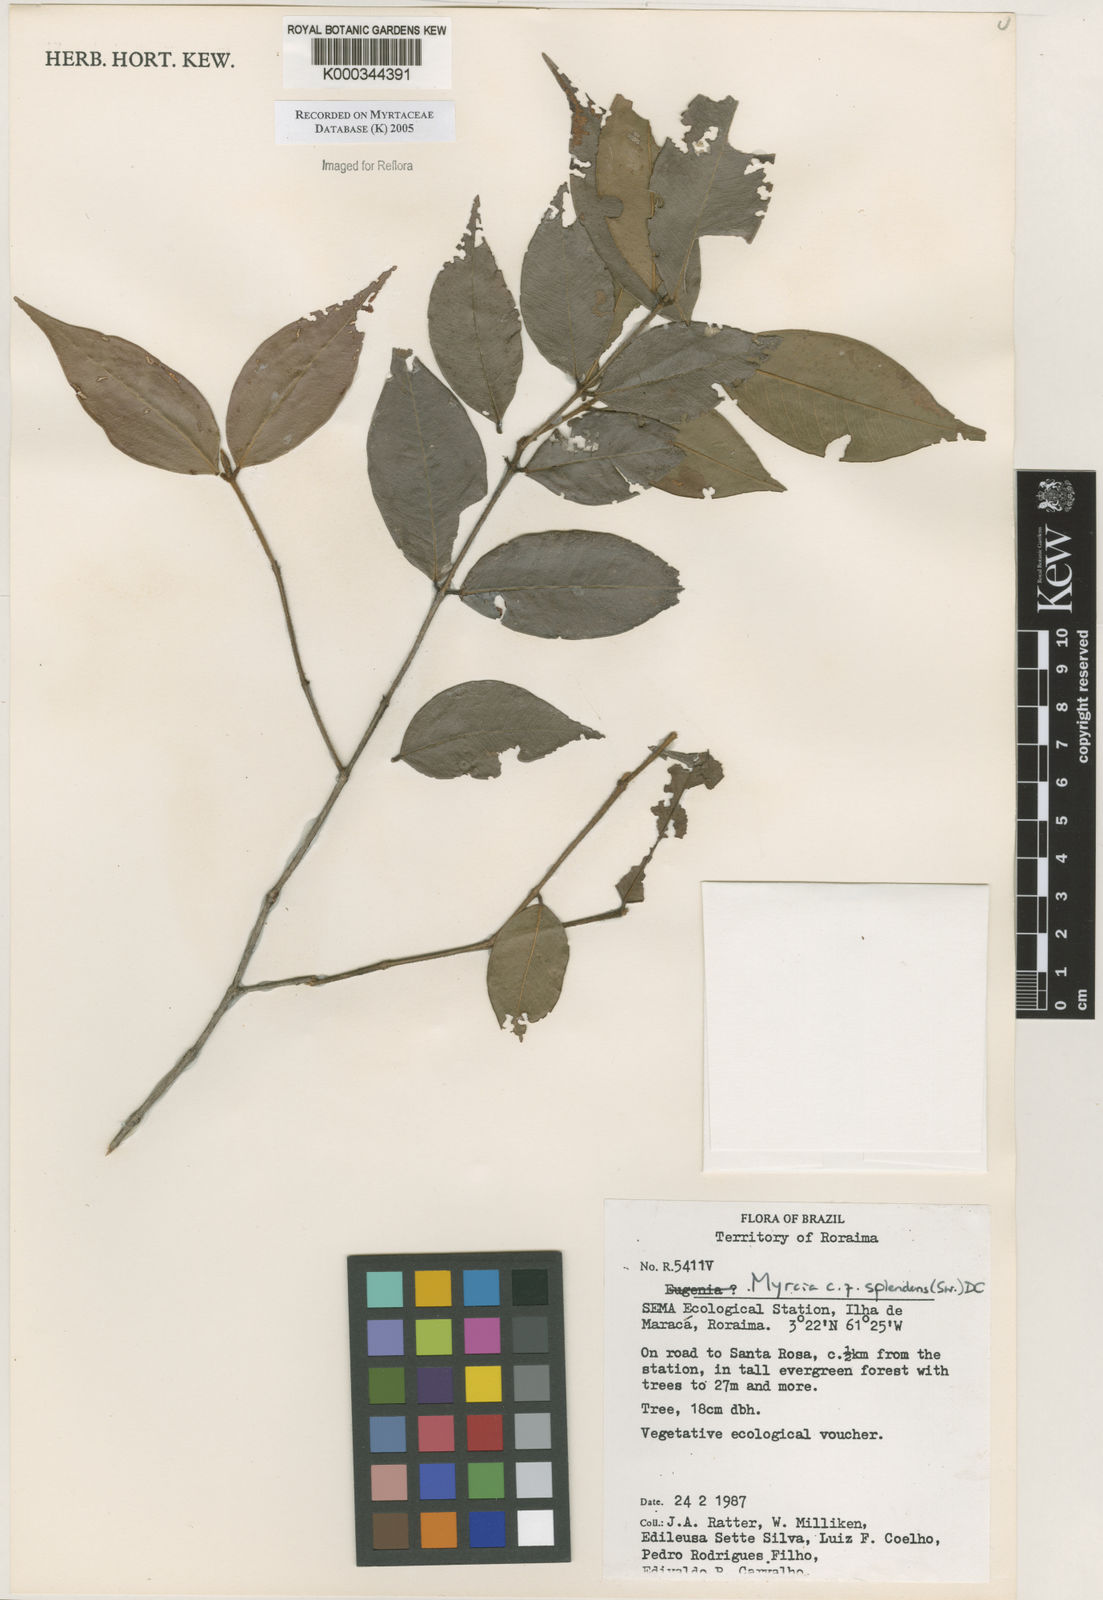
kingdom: Plantae
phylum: Tracheophyta
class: Magnoliopsida
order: Myrtales
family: Myrtaceae
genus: Myrcia
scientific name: Myrcia splendens
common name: Surinam cherry
